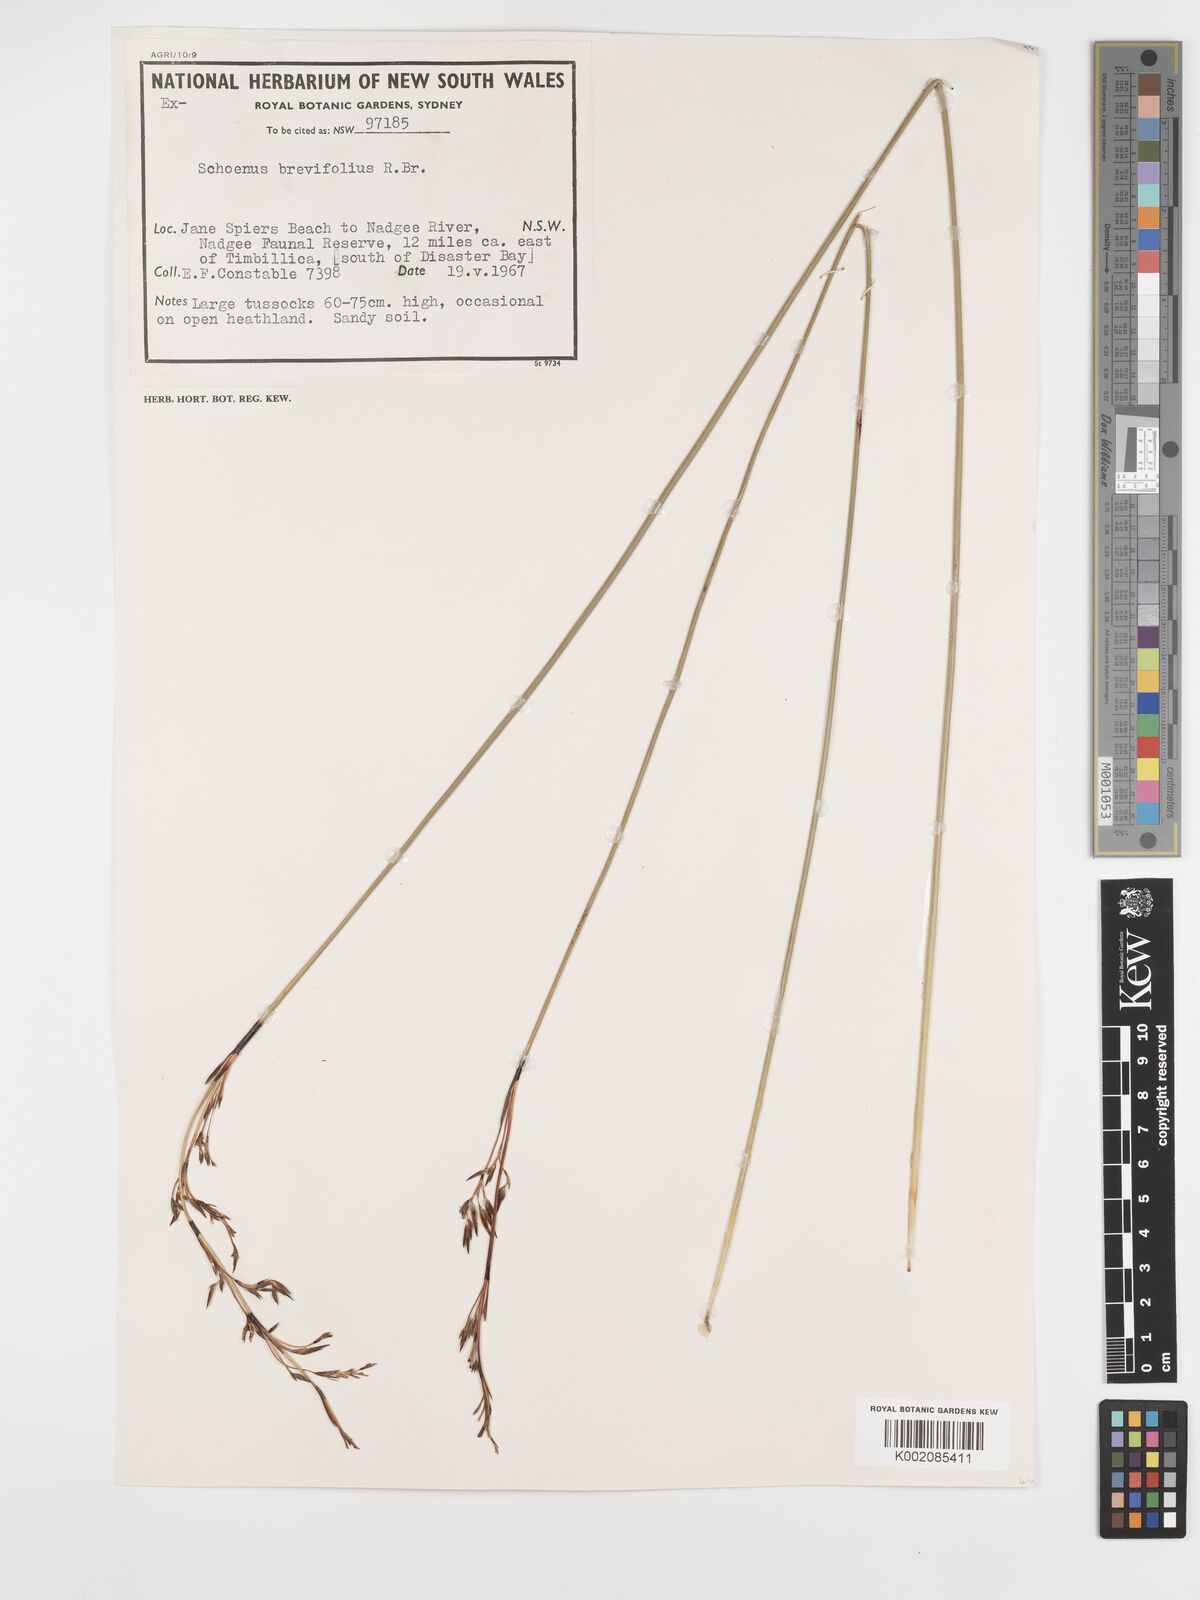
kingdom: Plantae
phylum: Tracheophyta
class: Liliopsida
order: Poales
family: Cyperaceae
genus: Schoenus
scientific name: Schoenus brevifolius
